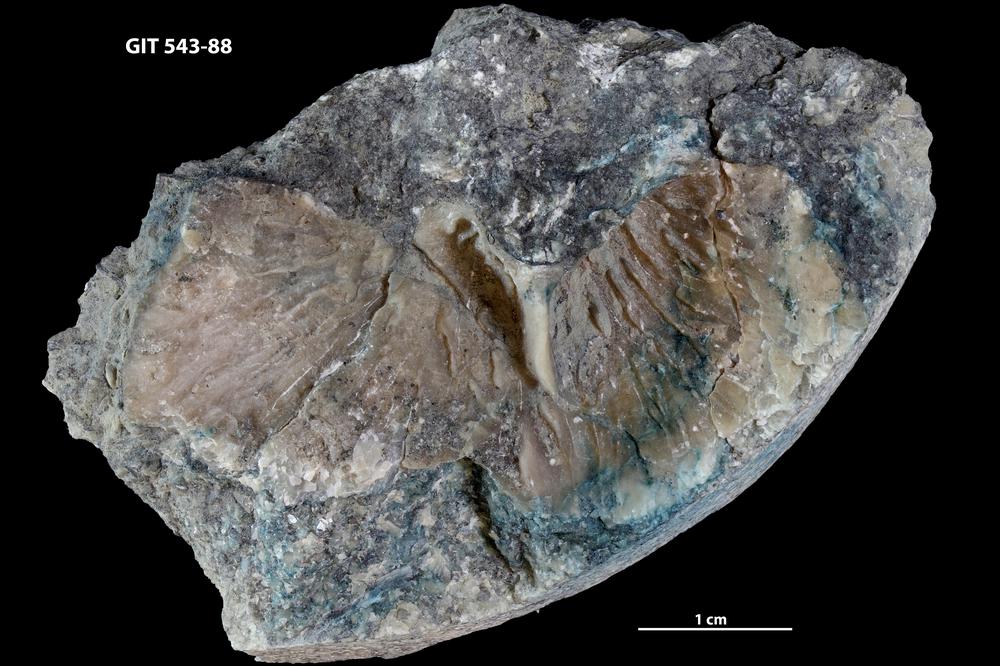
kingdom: Animalia
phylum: Brachiopoda
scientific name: Brachiopoda
